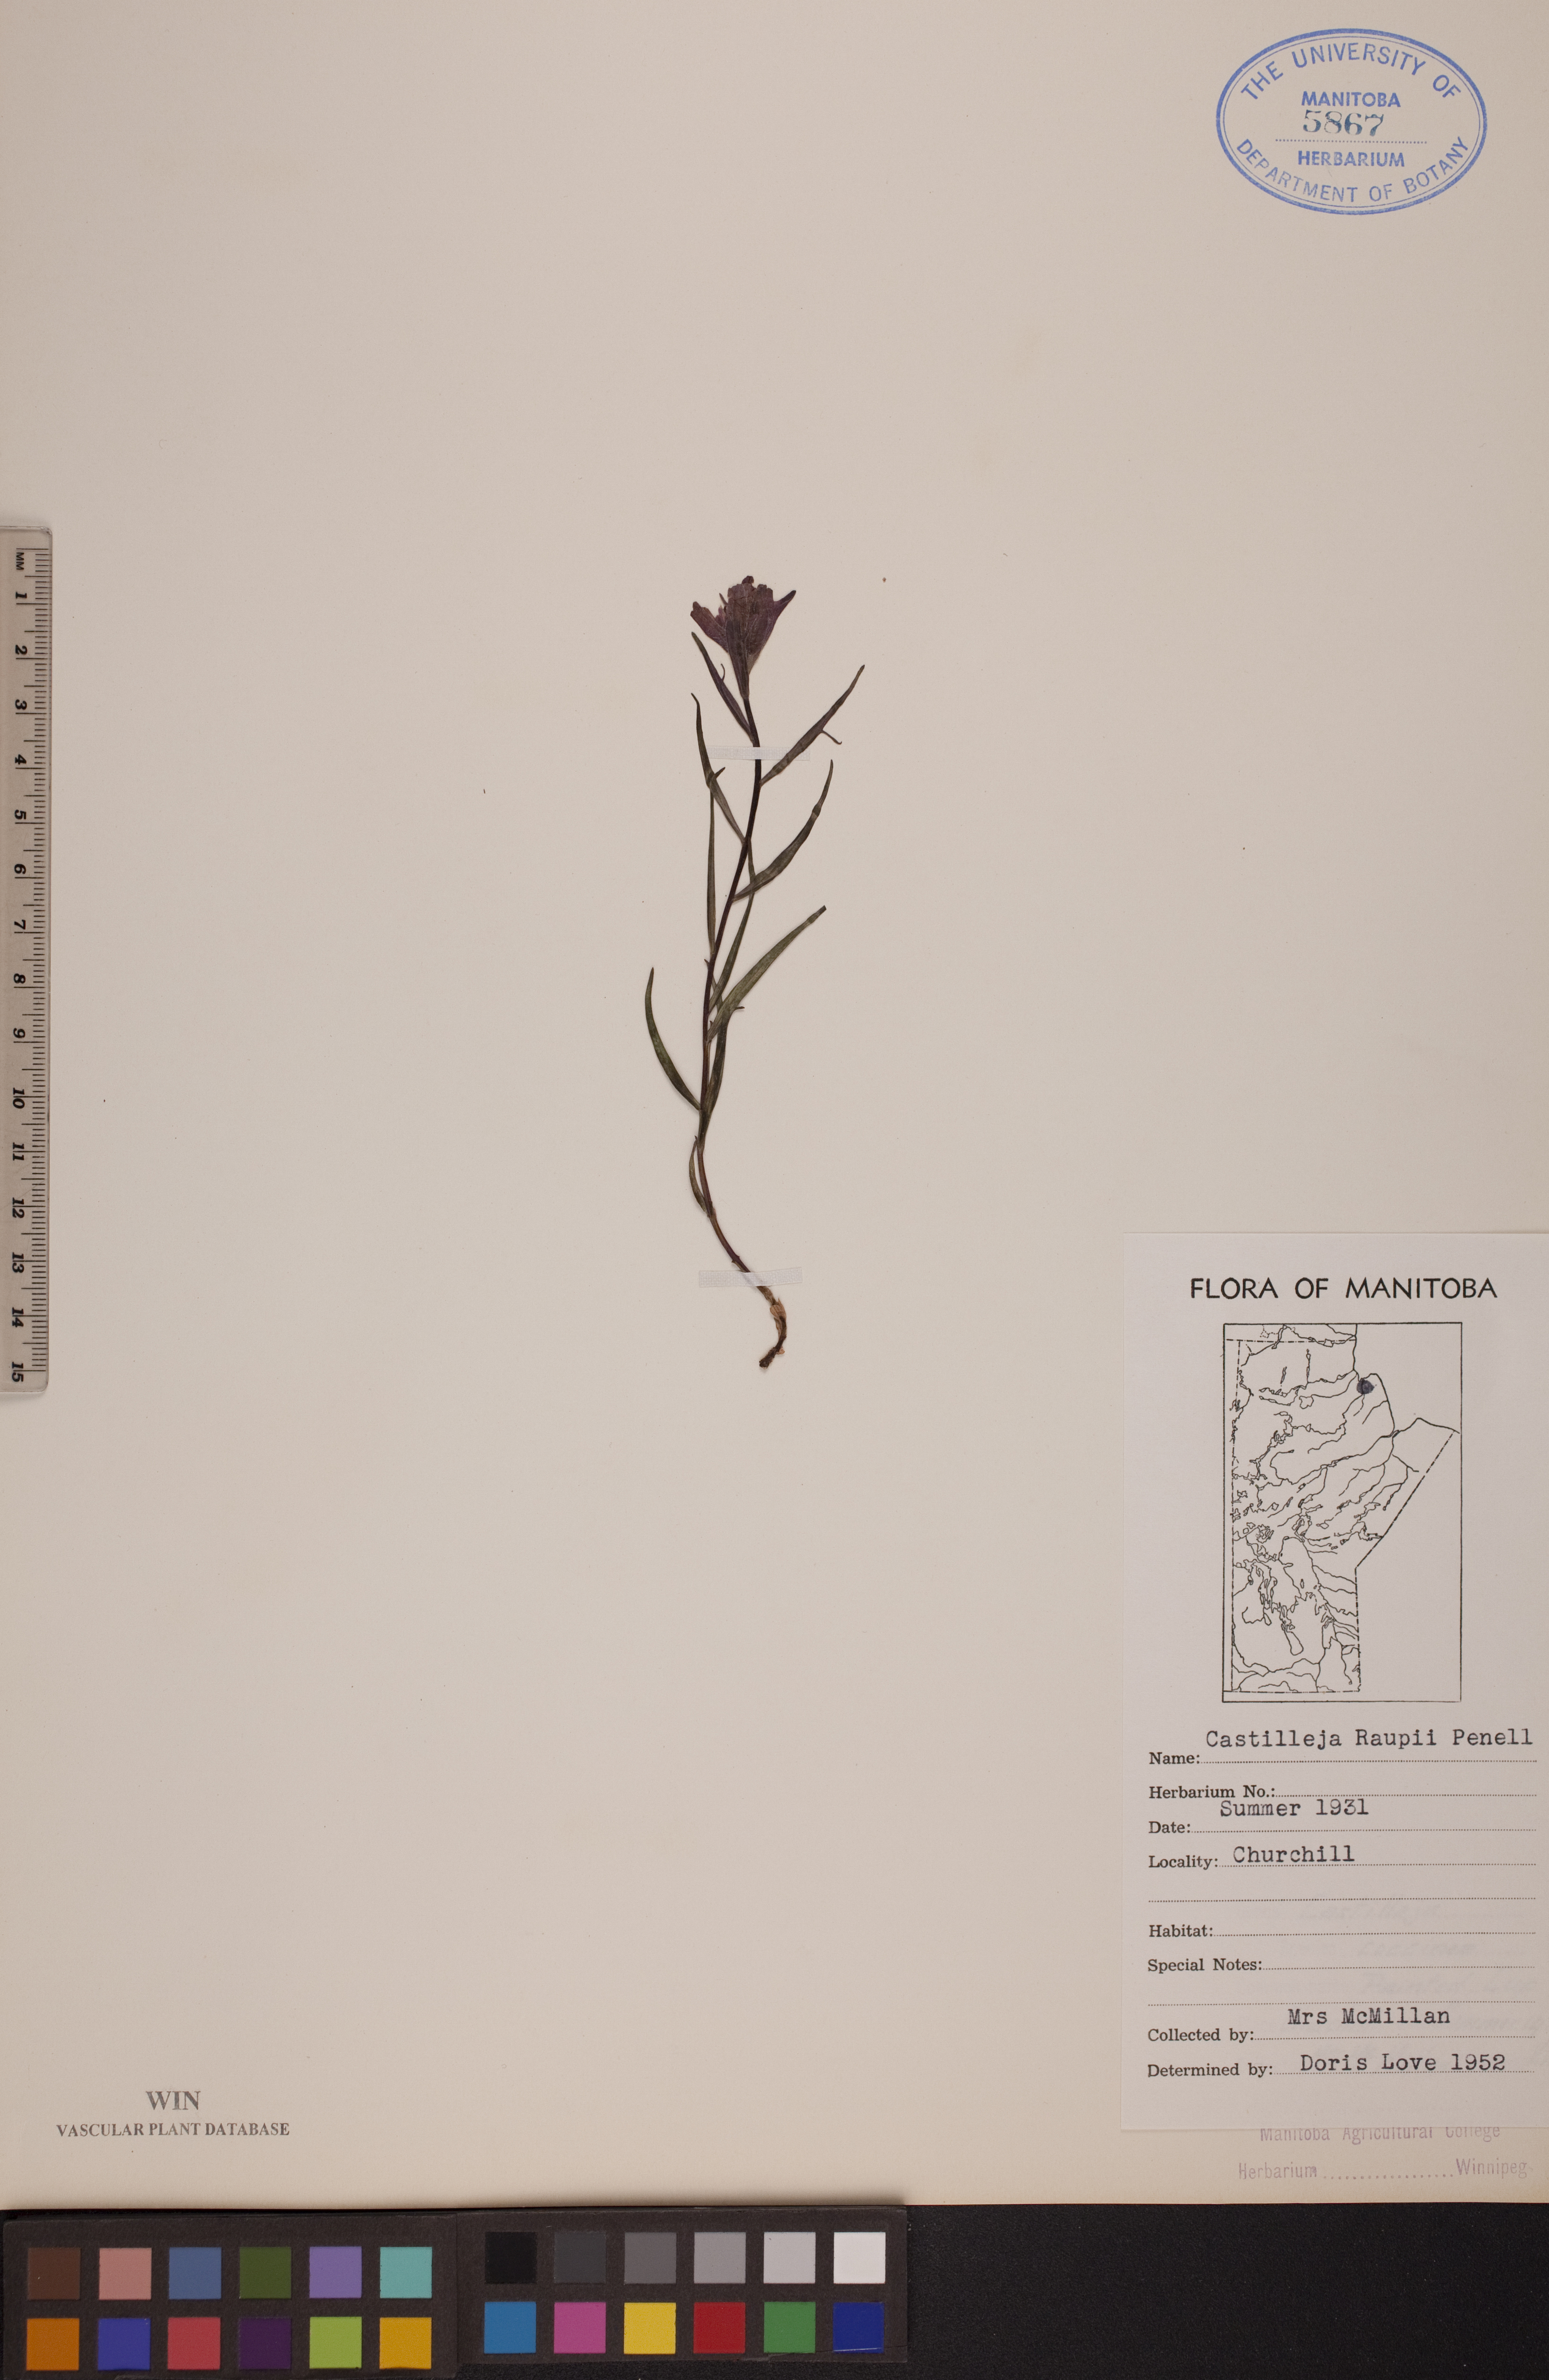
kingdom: Plantae
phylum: Tracheophyta
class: Magnoliopsida
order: Lamiales
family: Orobanchaceae
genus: Castilleja
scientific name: Castilleja raupii
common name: Raup's paintbrush
